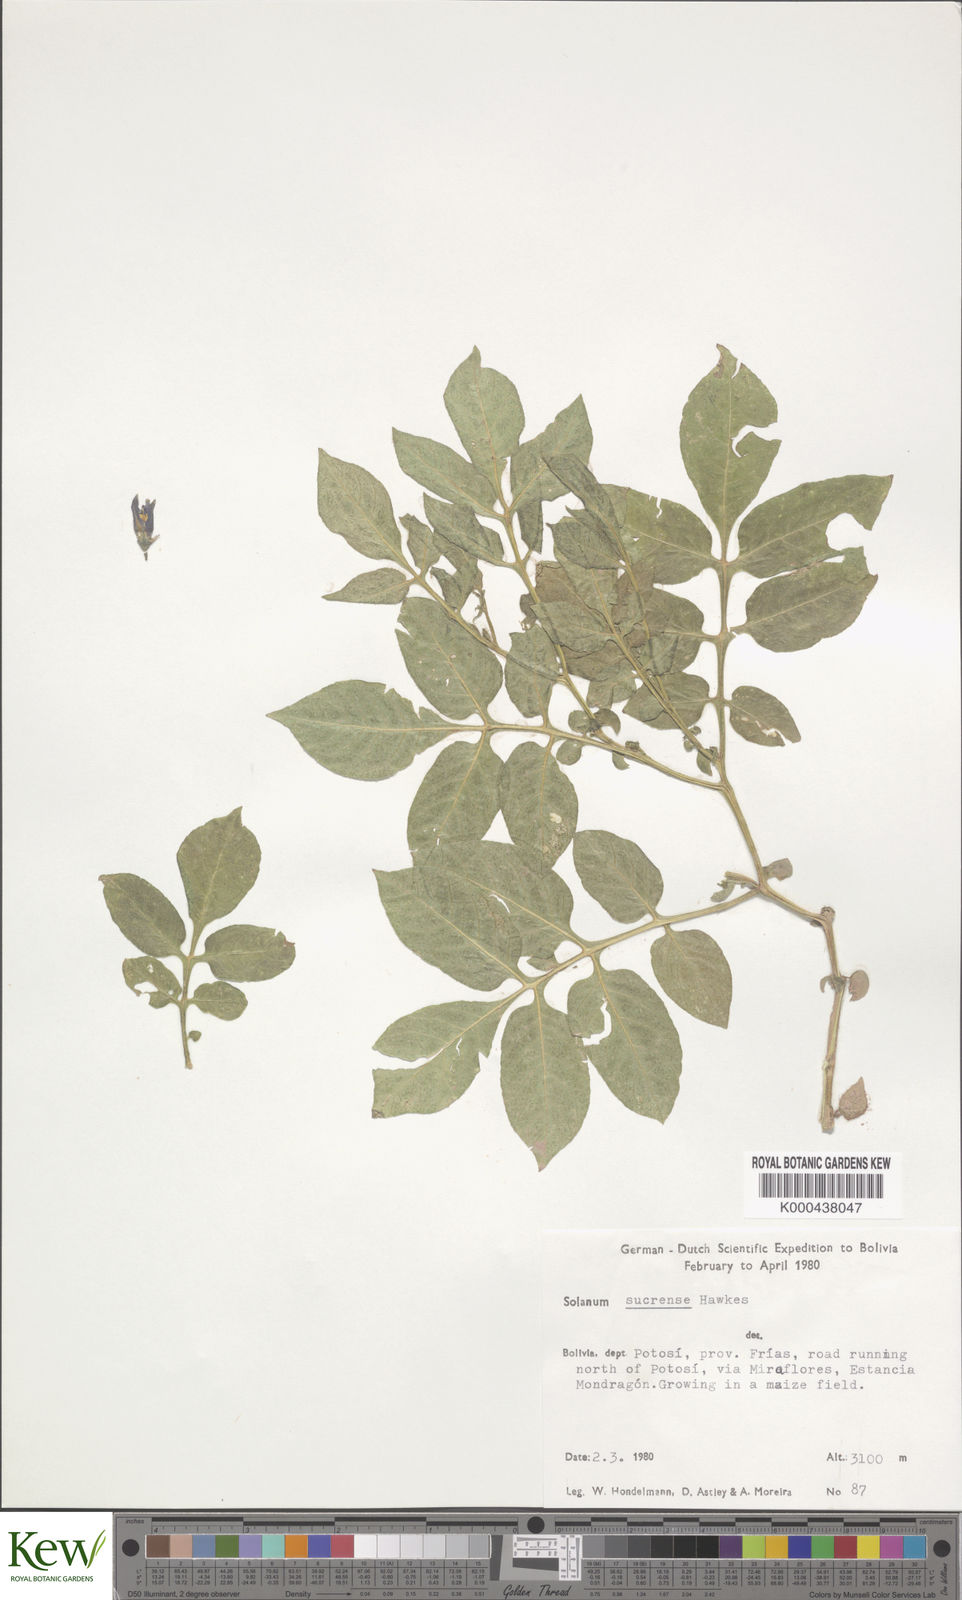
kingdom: Plantae
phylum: Tracheophyta
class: Magnoliopsida
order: Solanales
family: Solanaceae
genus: Solanum
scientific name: Solanum brevicaule
